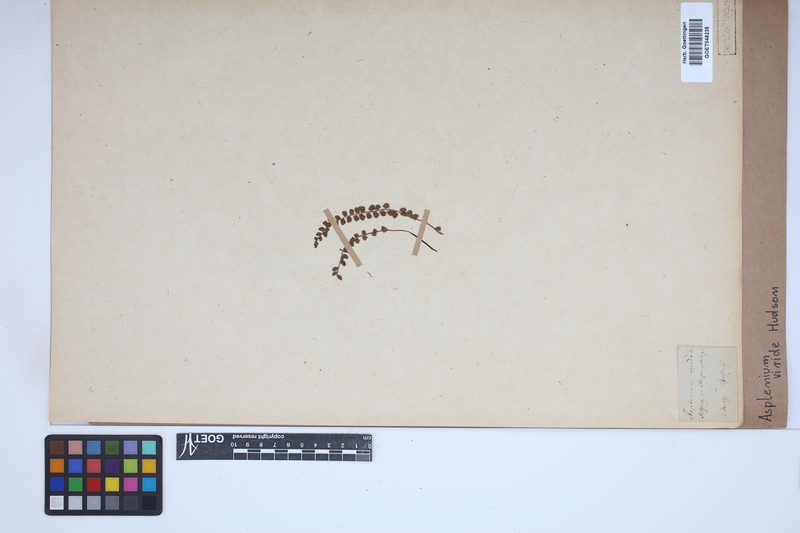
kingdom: Plantae
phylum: Tracheophyta
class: Polypodiopsida
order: Polypodiales
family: Aspleniaceae
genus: Asplenium
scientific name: Asplenium viride
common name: Green spleenwort
